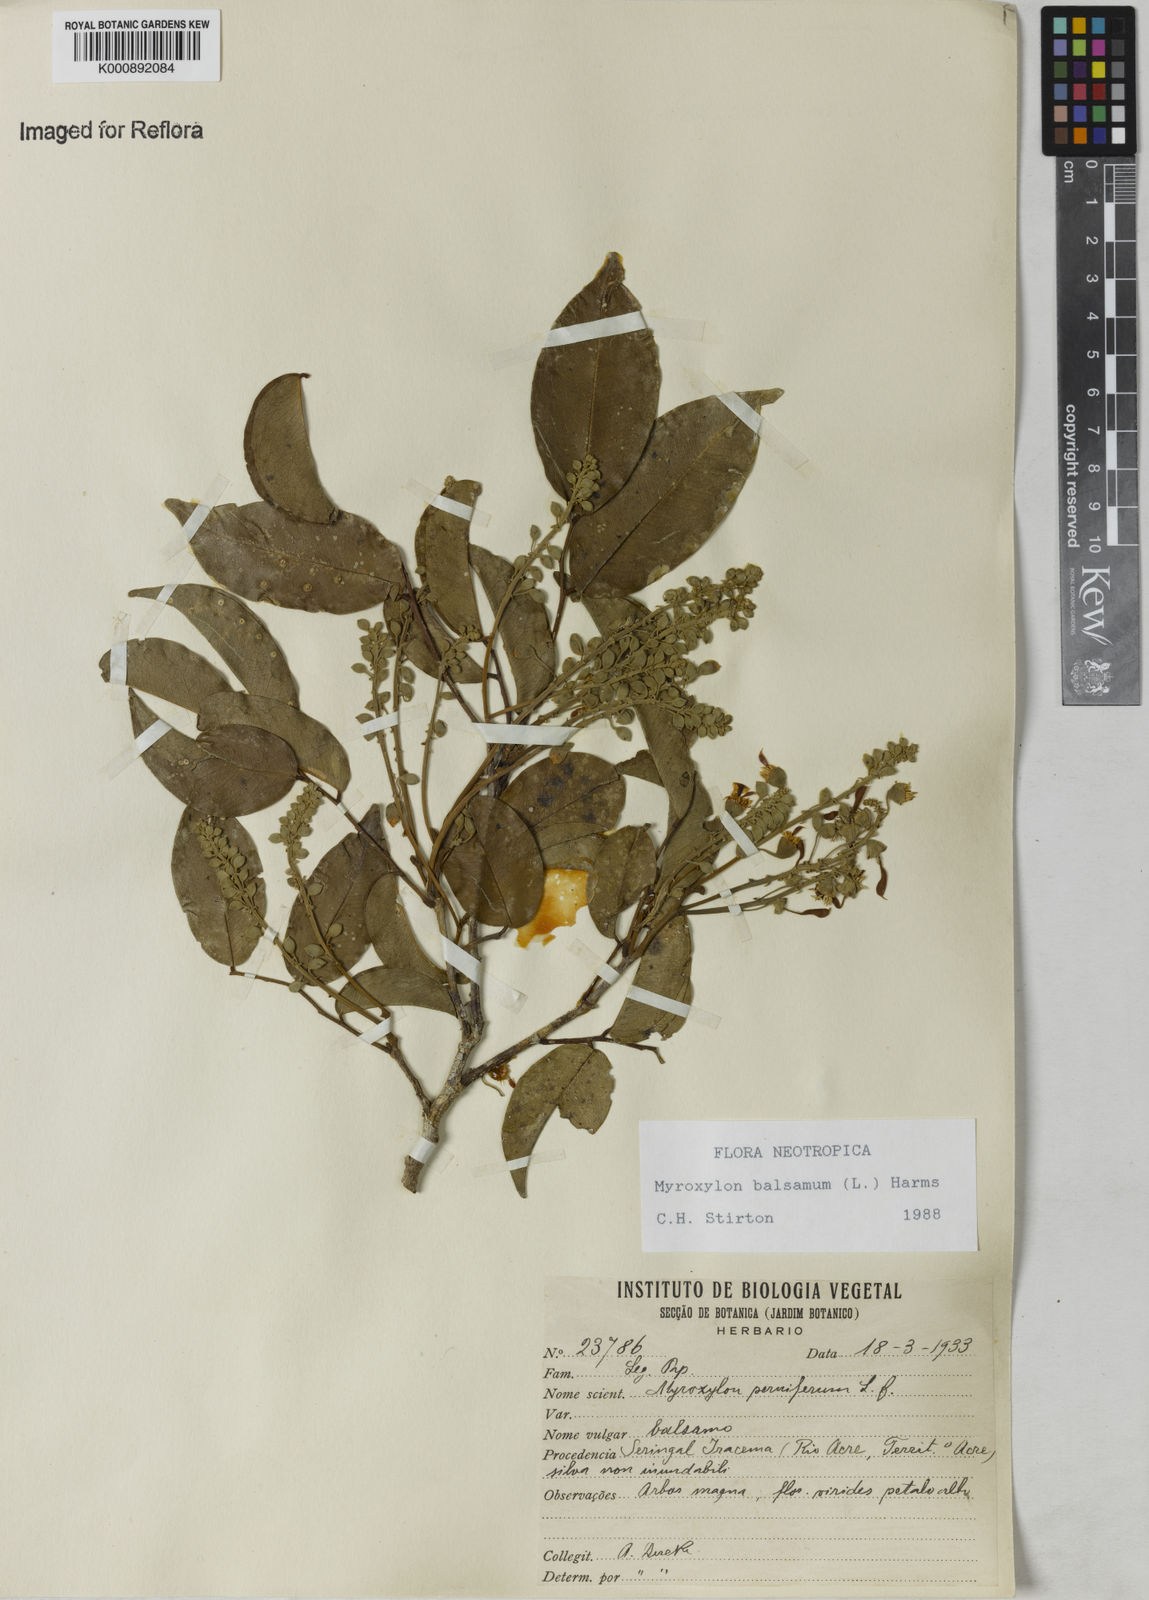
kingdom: Plantae
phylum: Tracheophyta
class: Magnoliopsida
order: Fabales
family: Fabaceae
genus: Myroxylon
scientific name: Myroxylon balsamum
